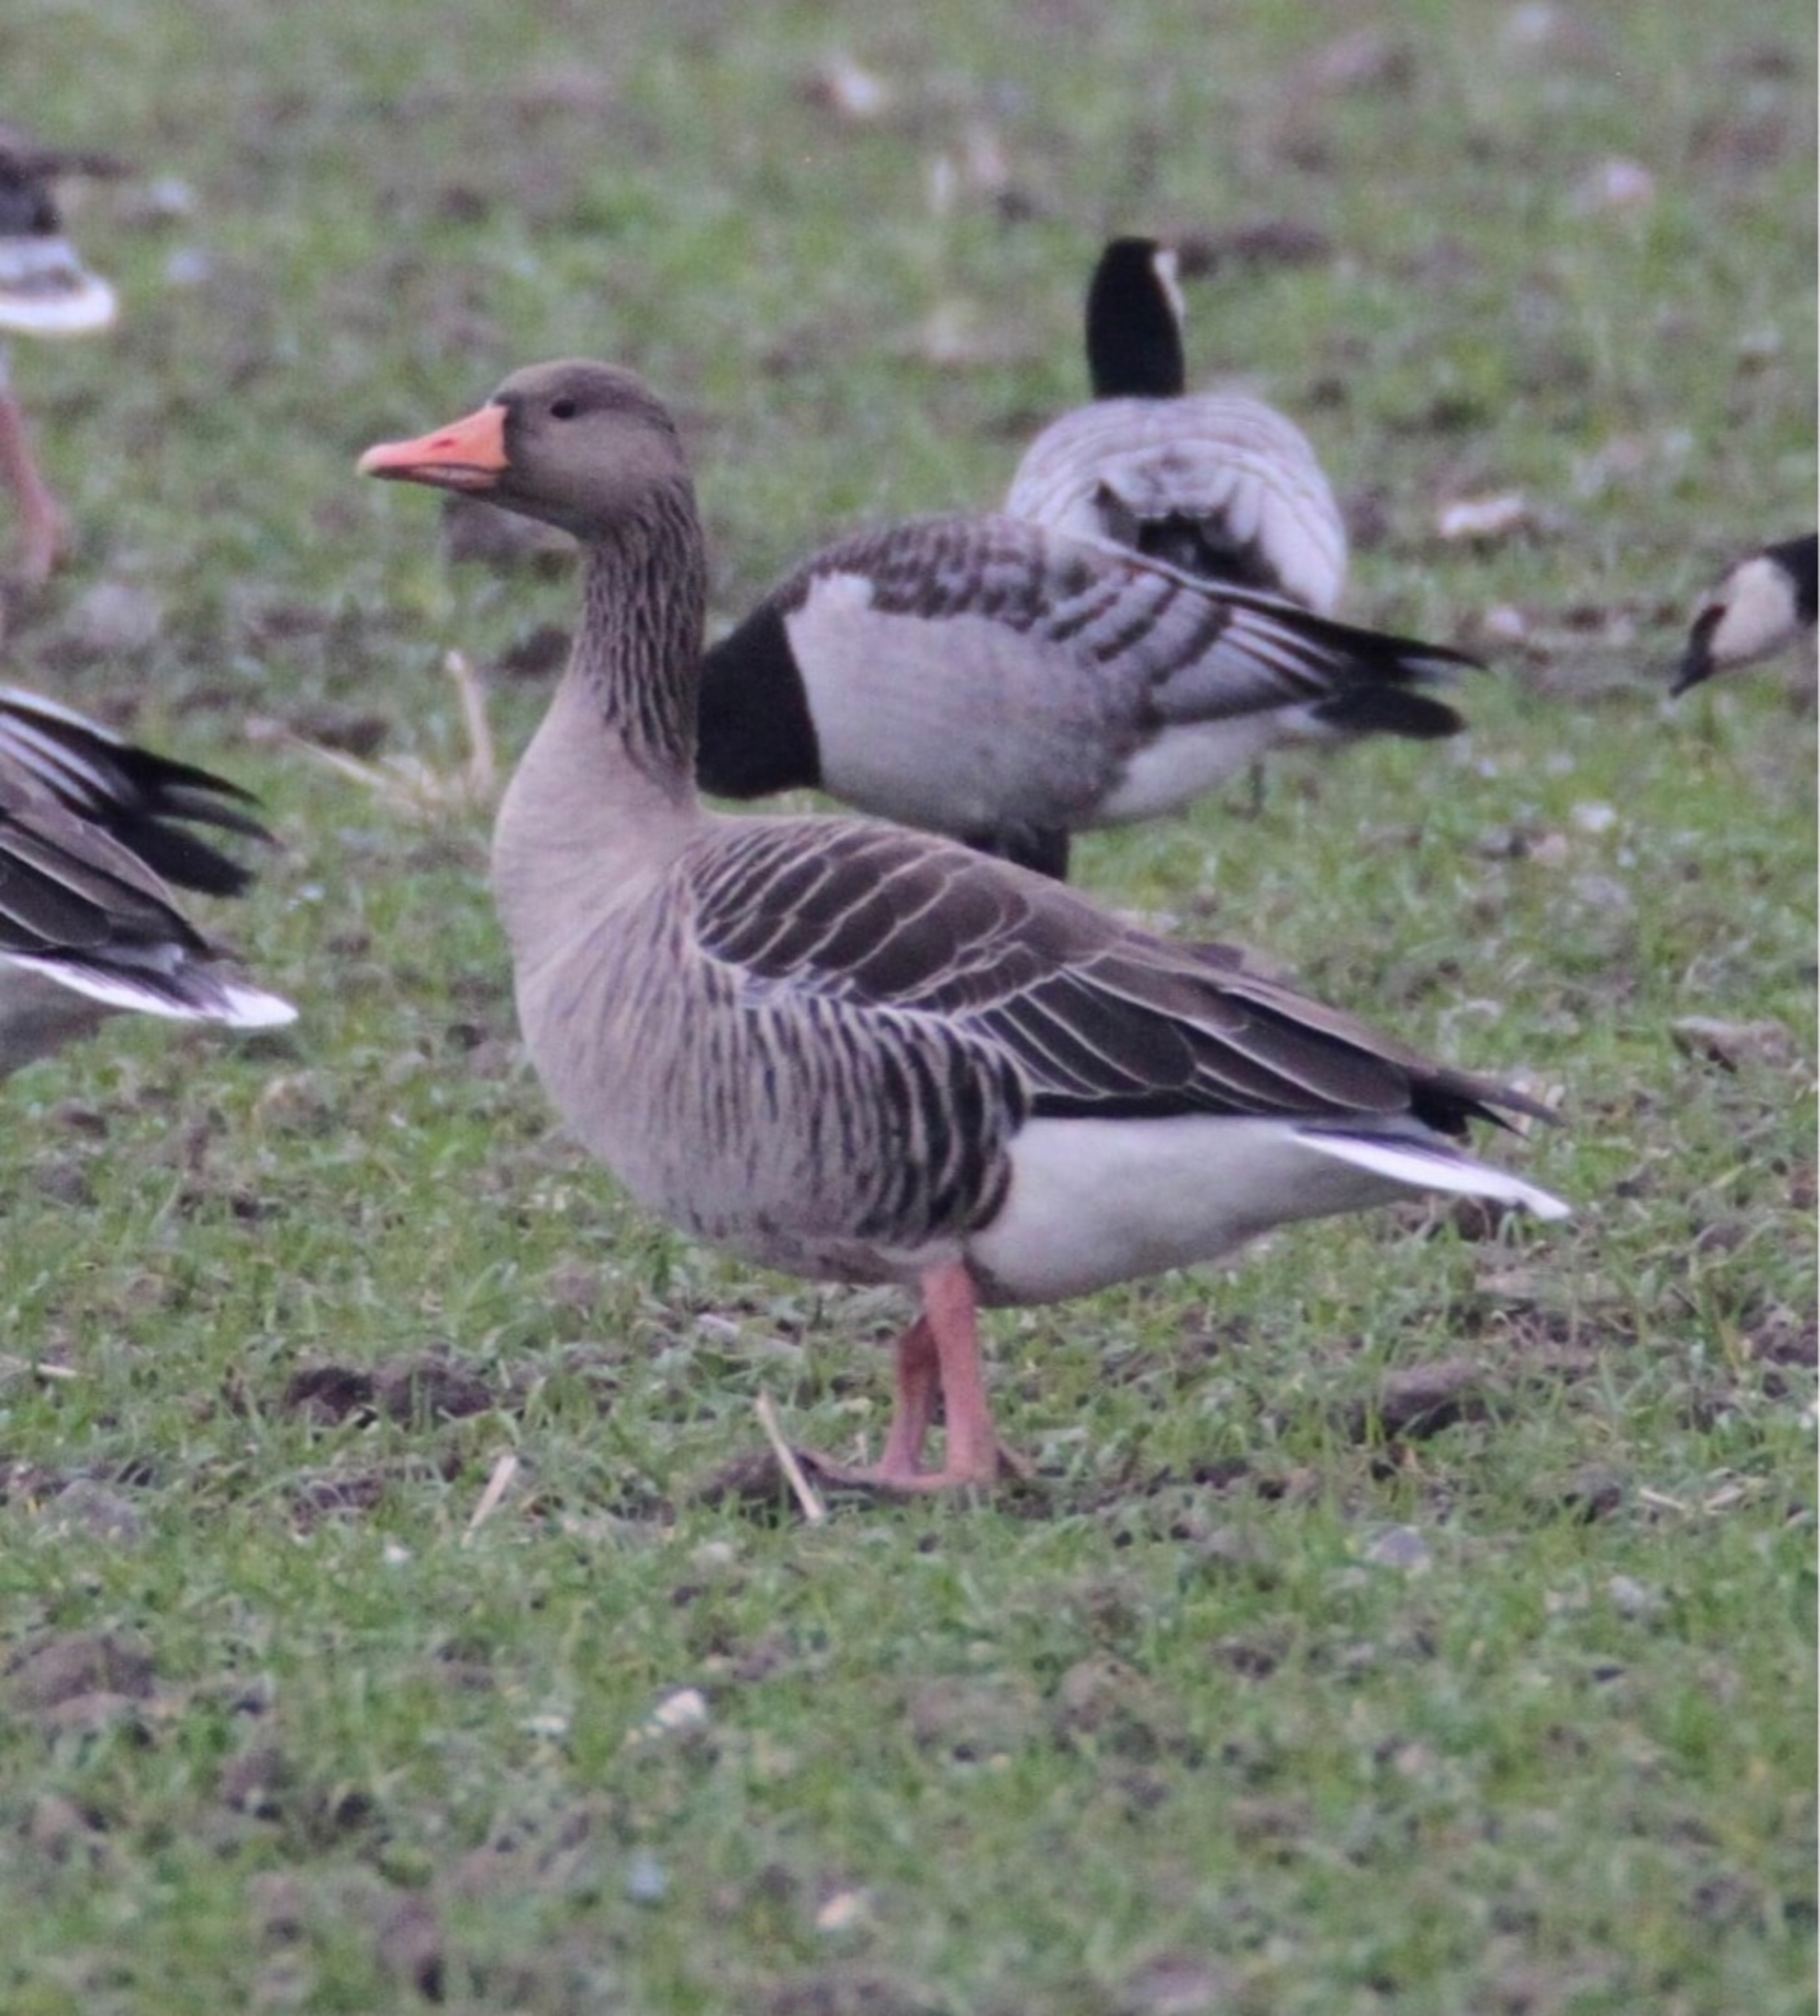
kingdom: Animalia
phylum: Chordata
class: Aves
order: Anseriformes
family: Anatidae
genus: Anser
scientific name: Anser anser
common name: Grågås
